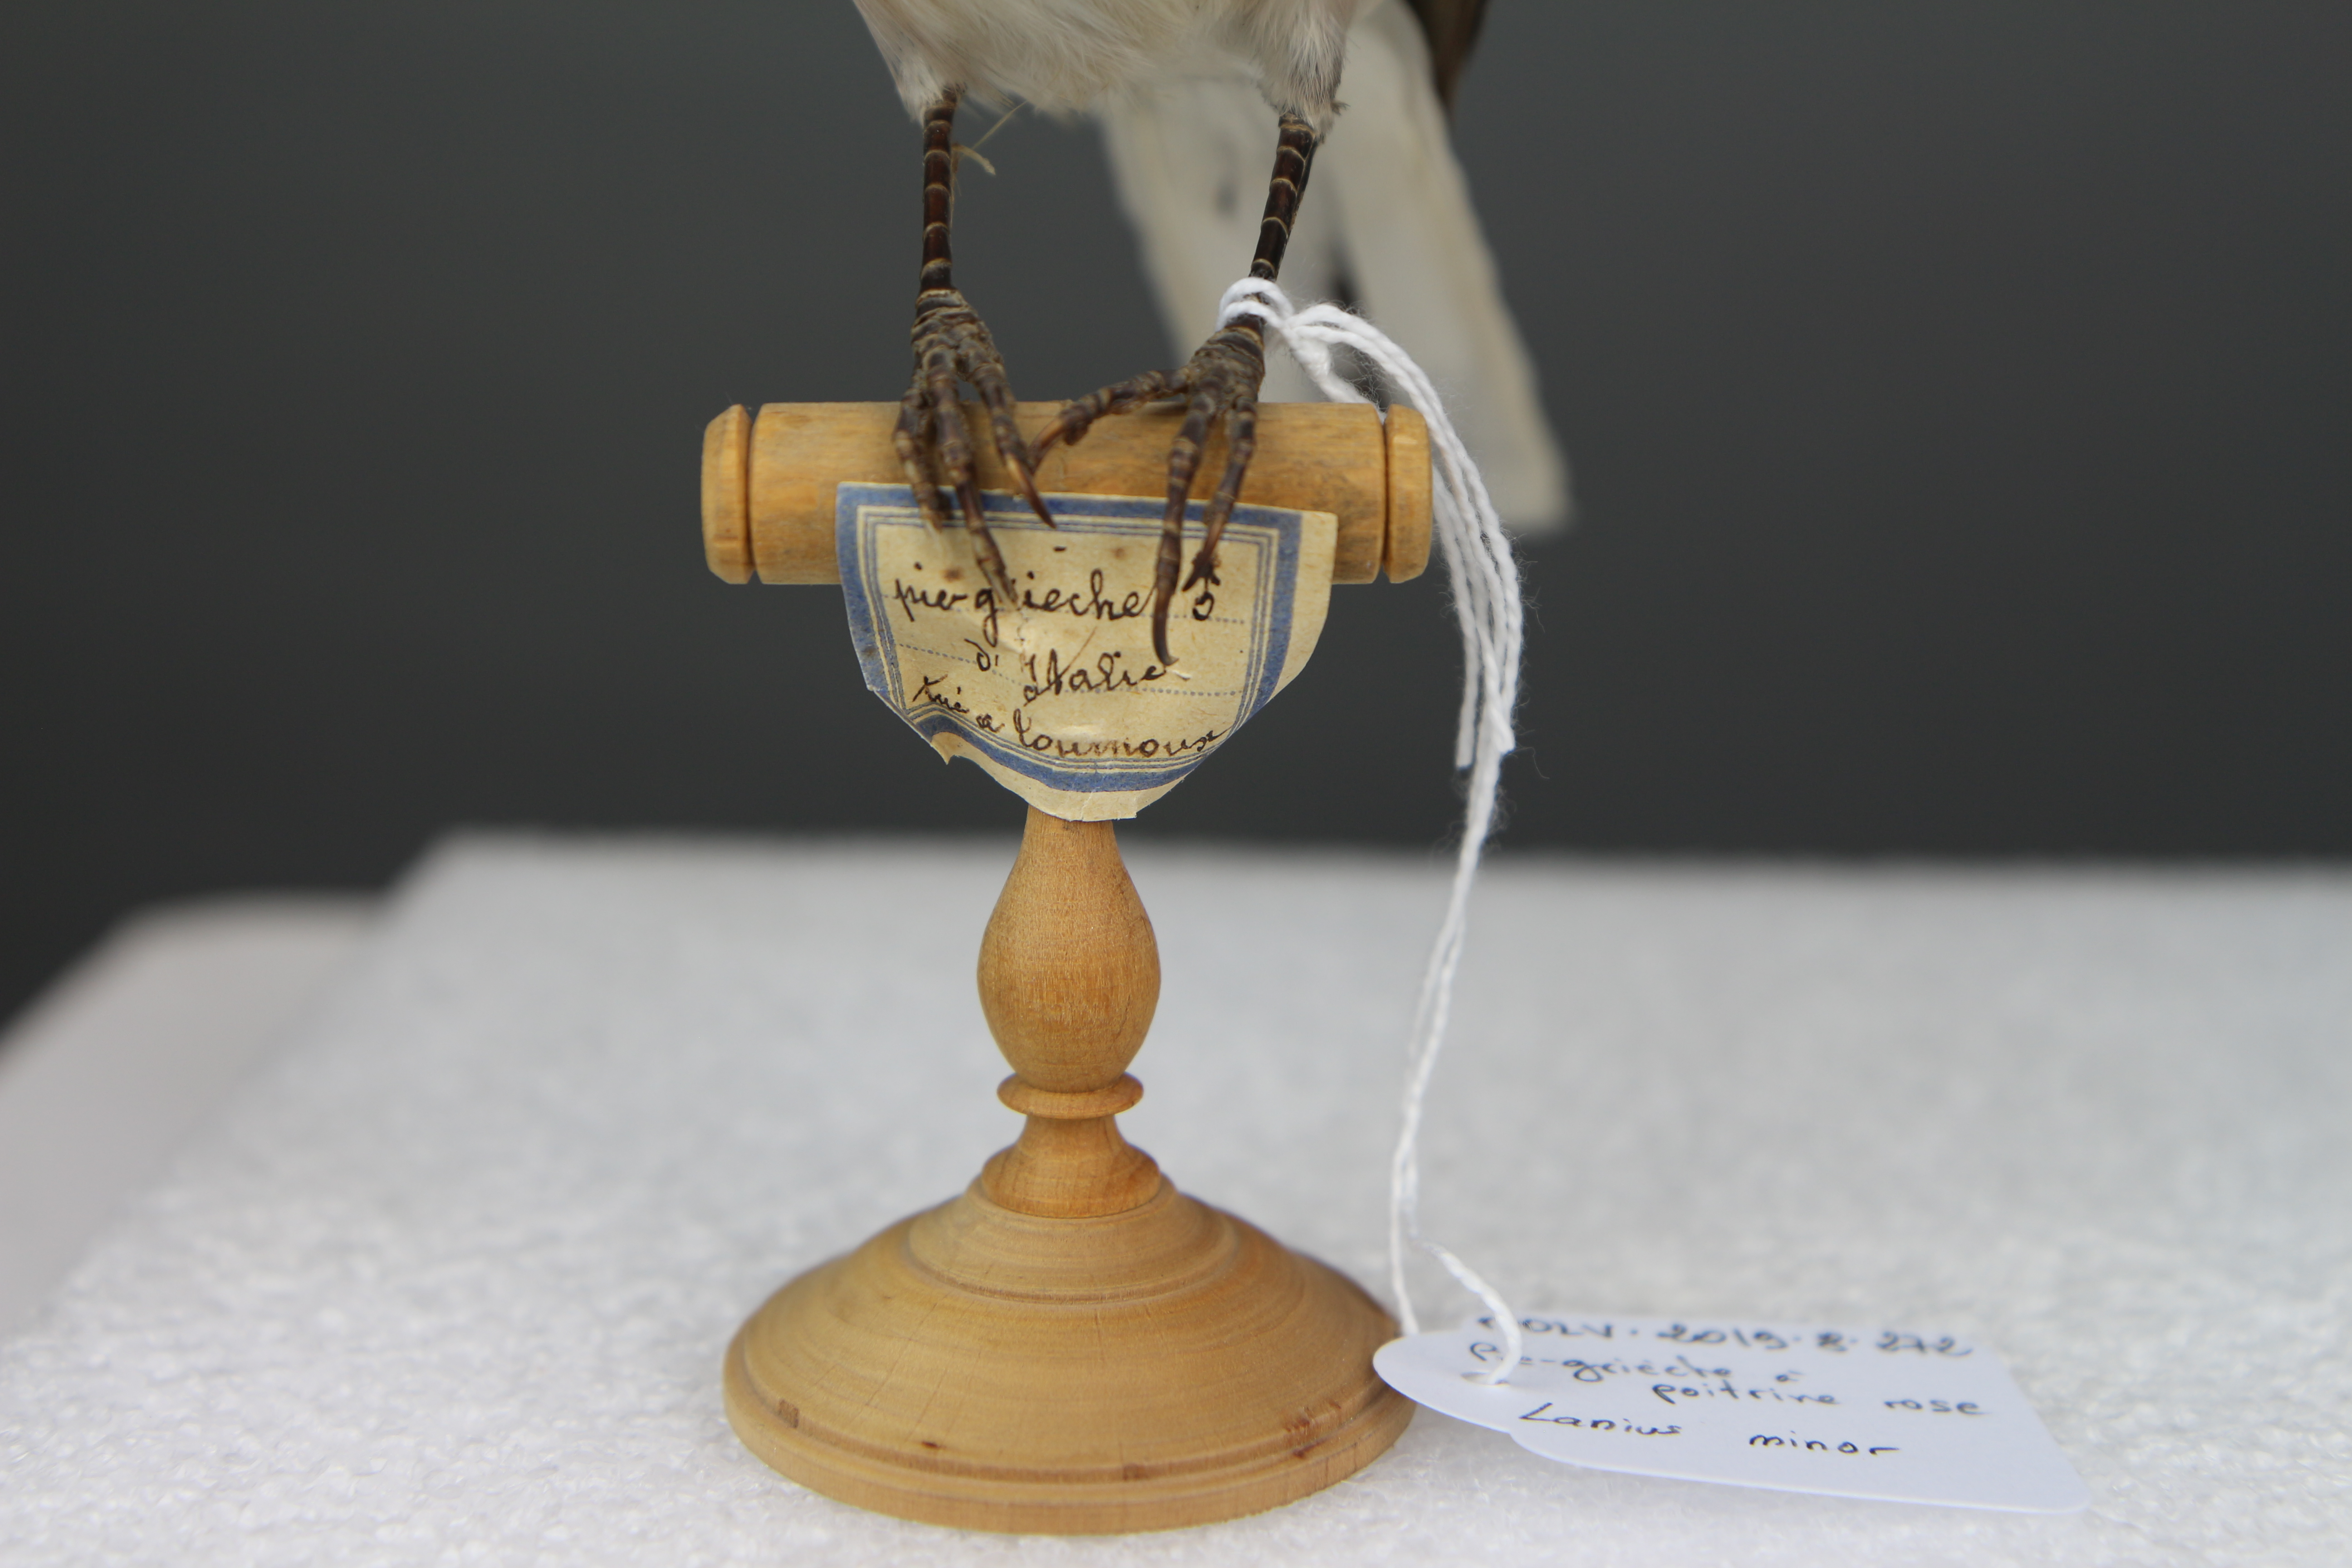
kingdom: Animalia
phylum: Chordata
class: Aves
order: Passeriformes
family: Laniidae
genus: Lanius
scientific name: Lanius minor
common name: Lesser grey shrike
